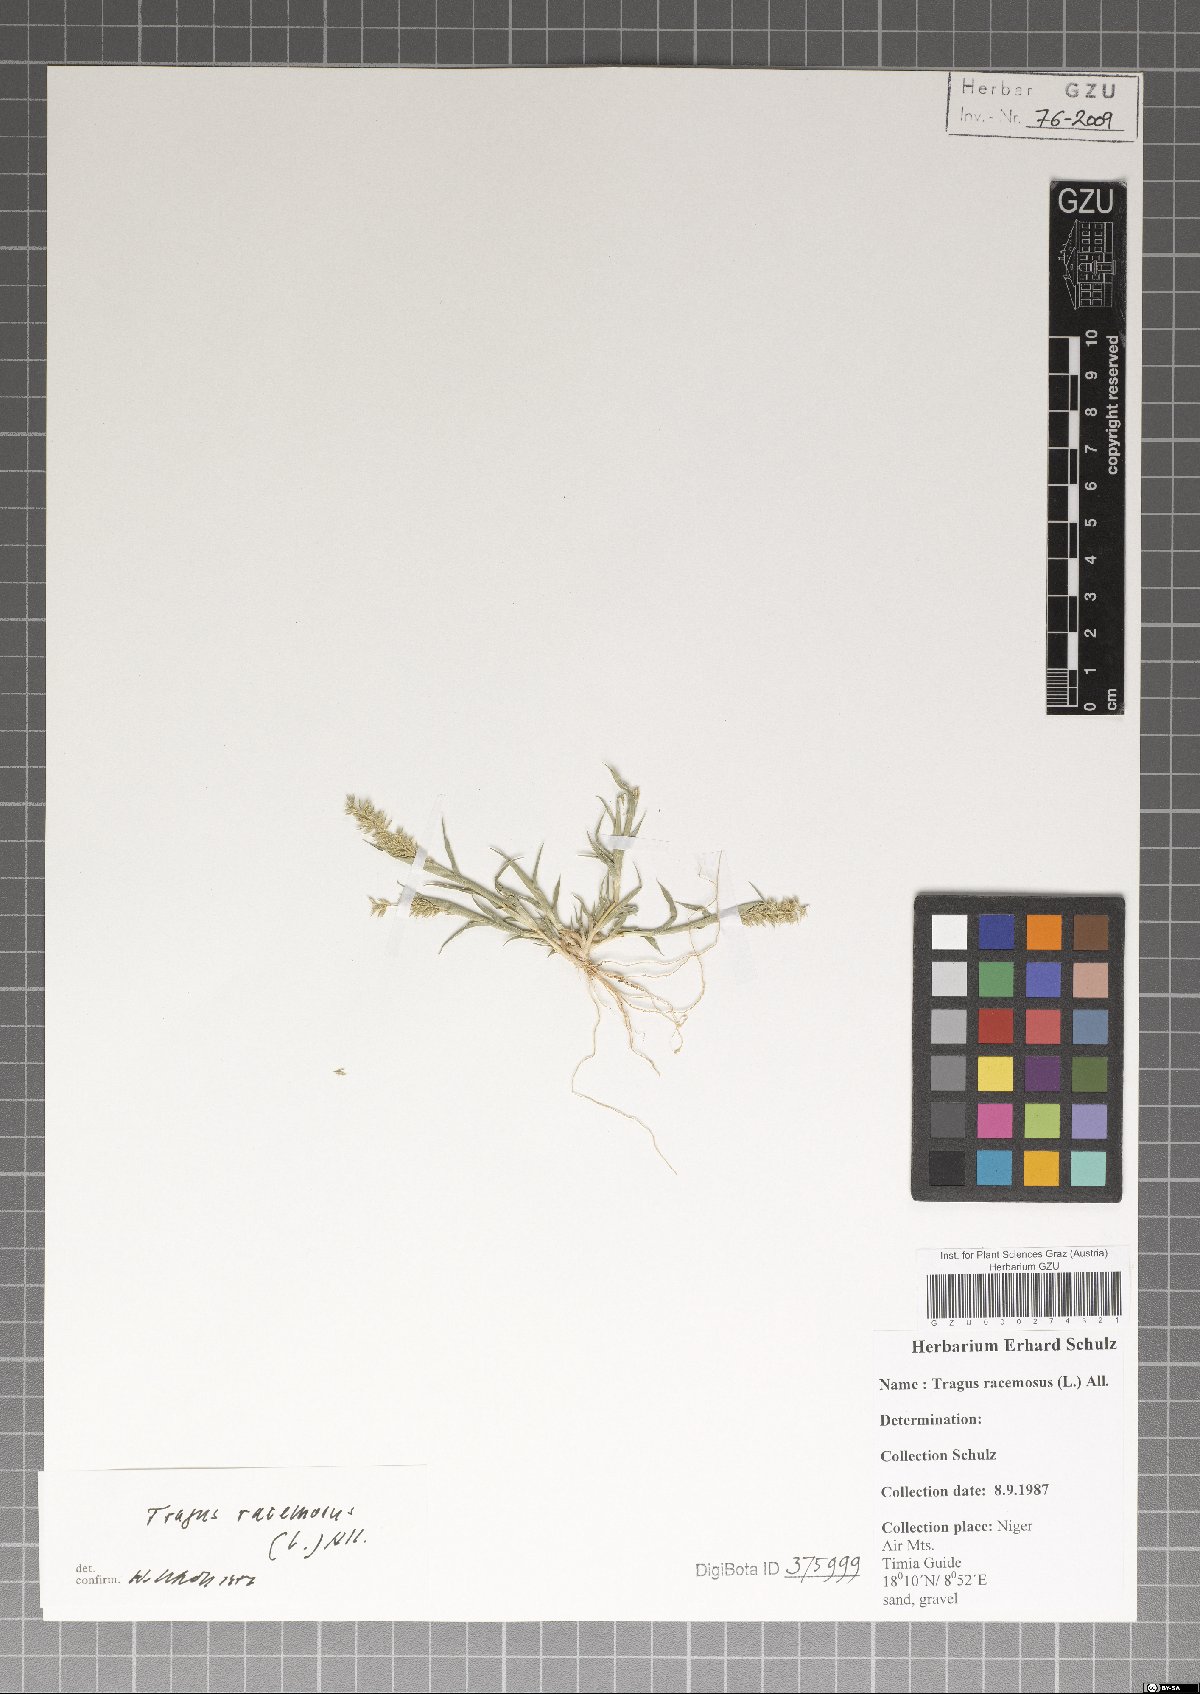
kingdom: Plantae
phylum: Tracheophyta
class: Liliopsida
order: Poales
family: Poaceae
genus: Tragus
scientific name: Tragus racemosus
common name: European bur-grass
